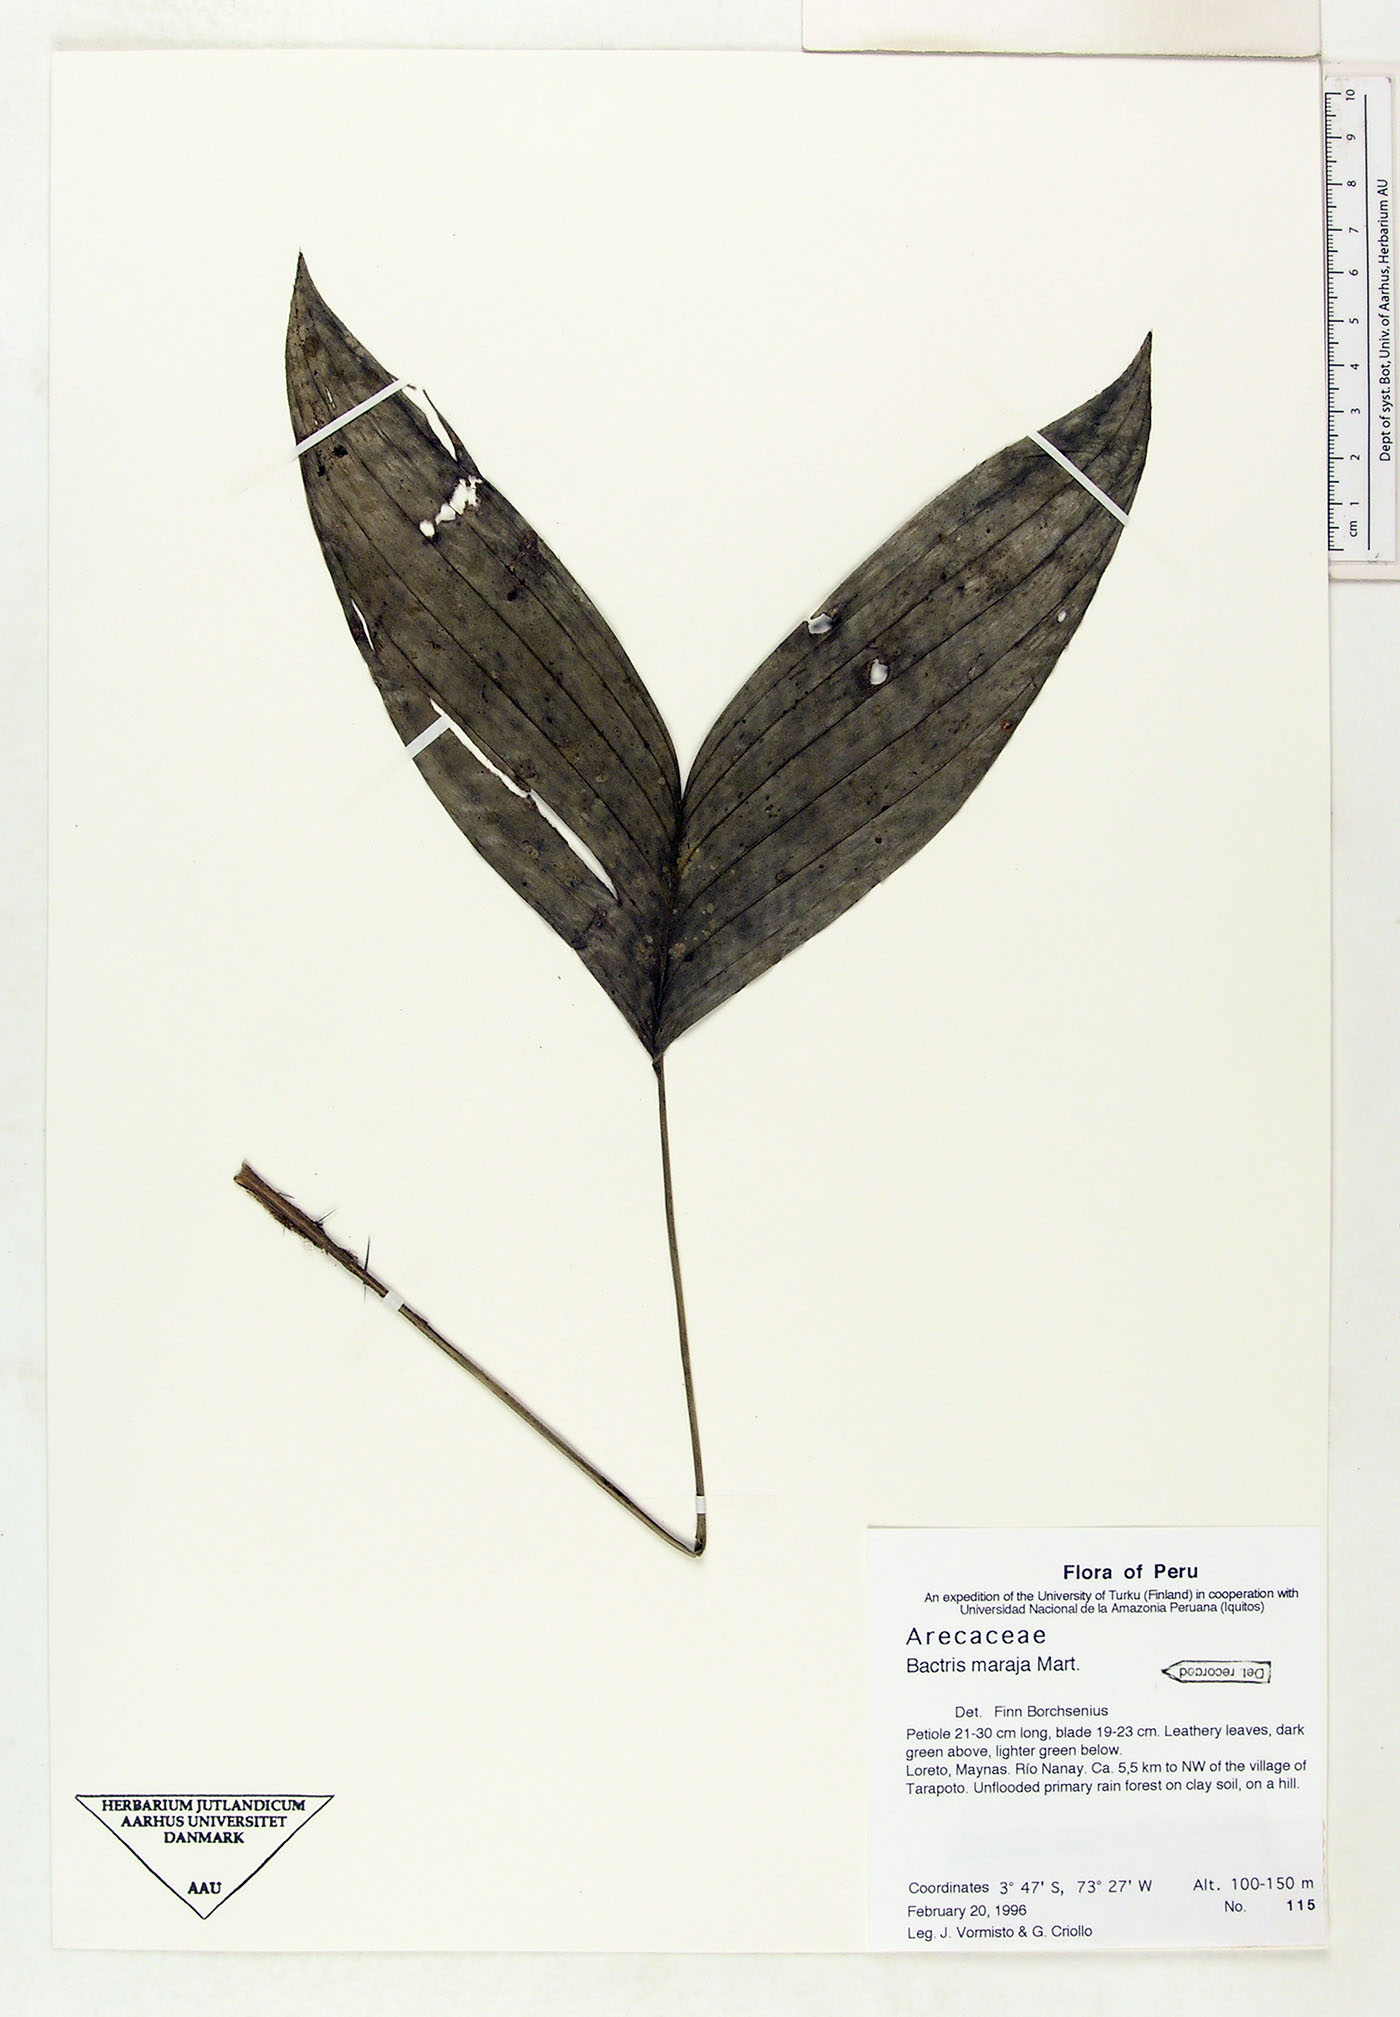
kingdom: Plantae
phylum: Tracheophyta
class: Liliopsida
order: Arecales
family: Arecaceae
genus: Bactris
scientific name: Bactris maraja
